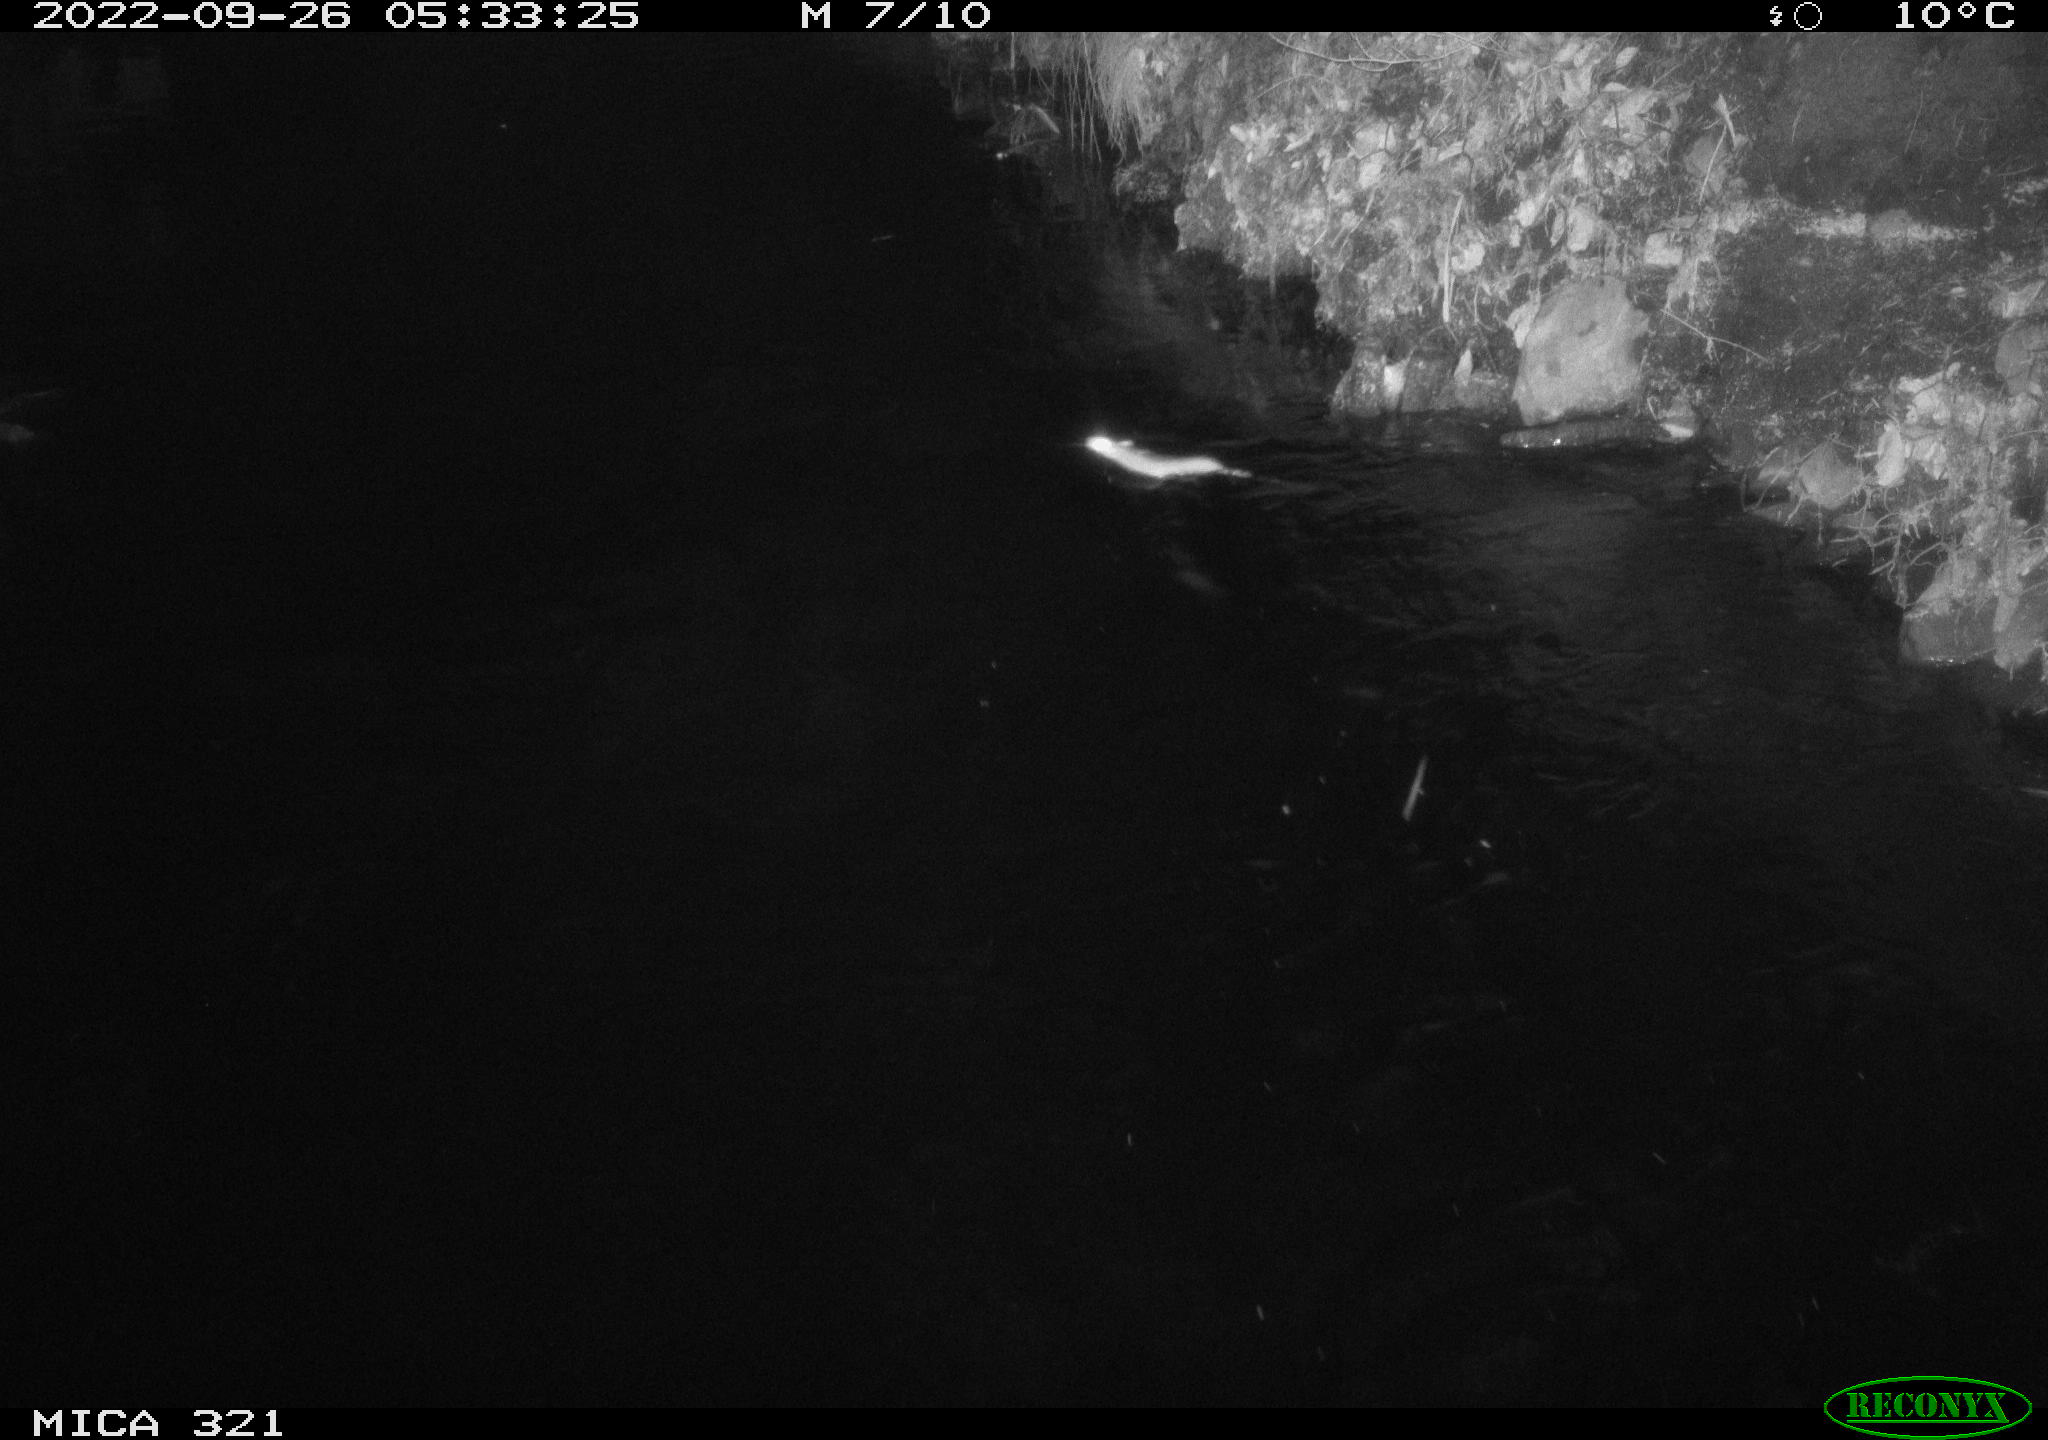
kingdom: Animalia
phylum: Chordata
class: Mammalia
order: Rodentia
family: Muridae
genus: Rattus
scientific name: Rattus norvegicus
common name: Brown rat
